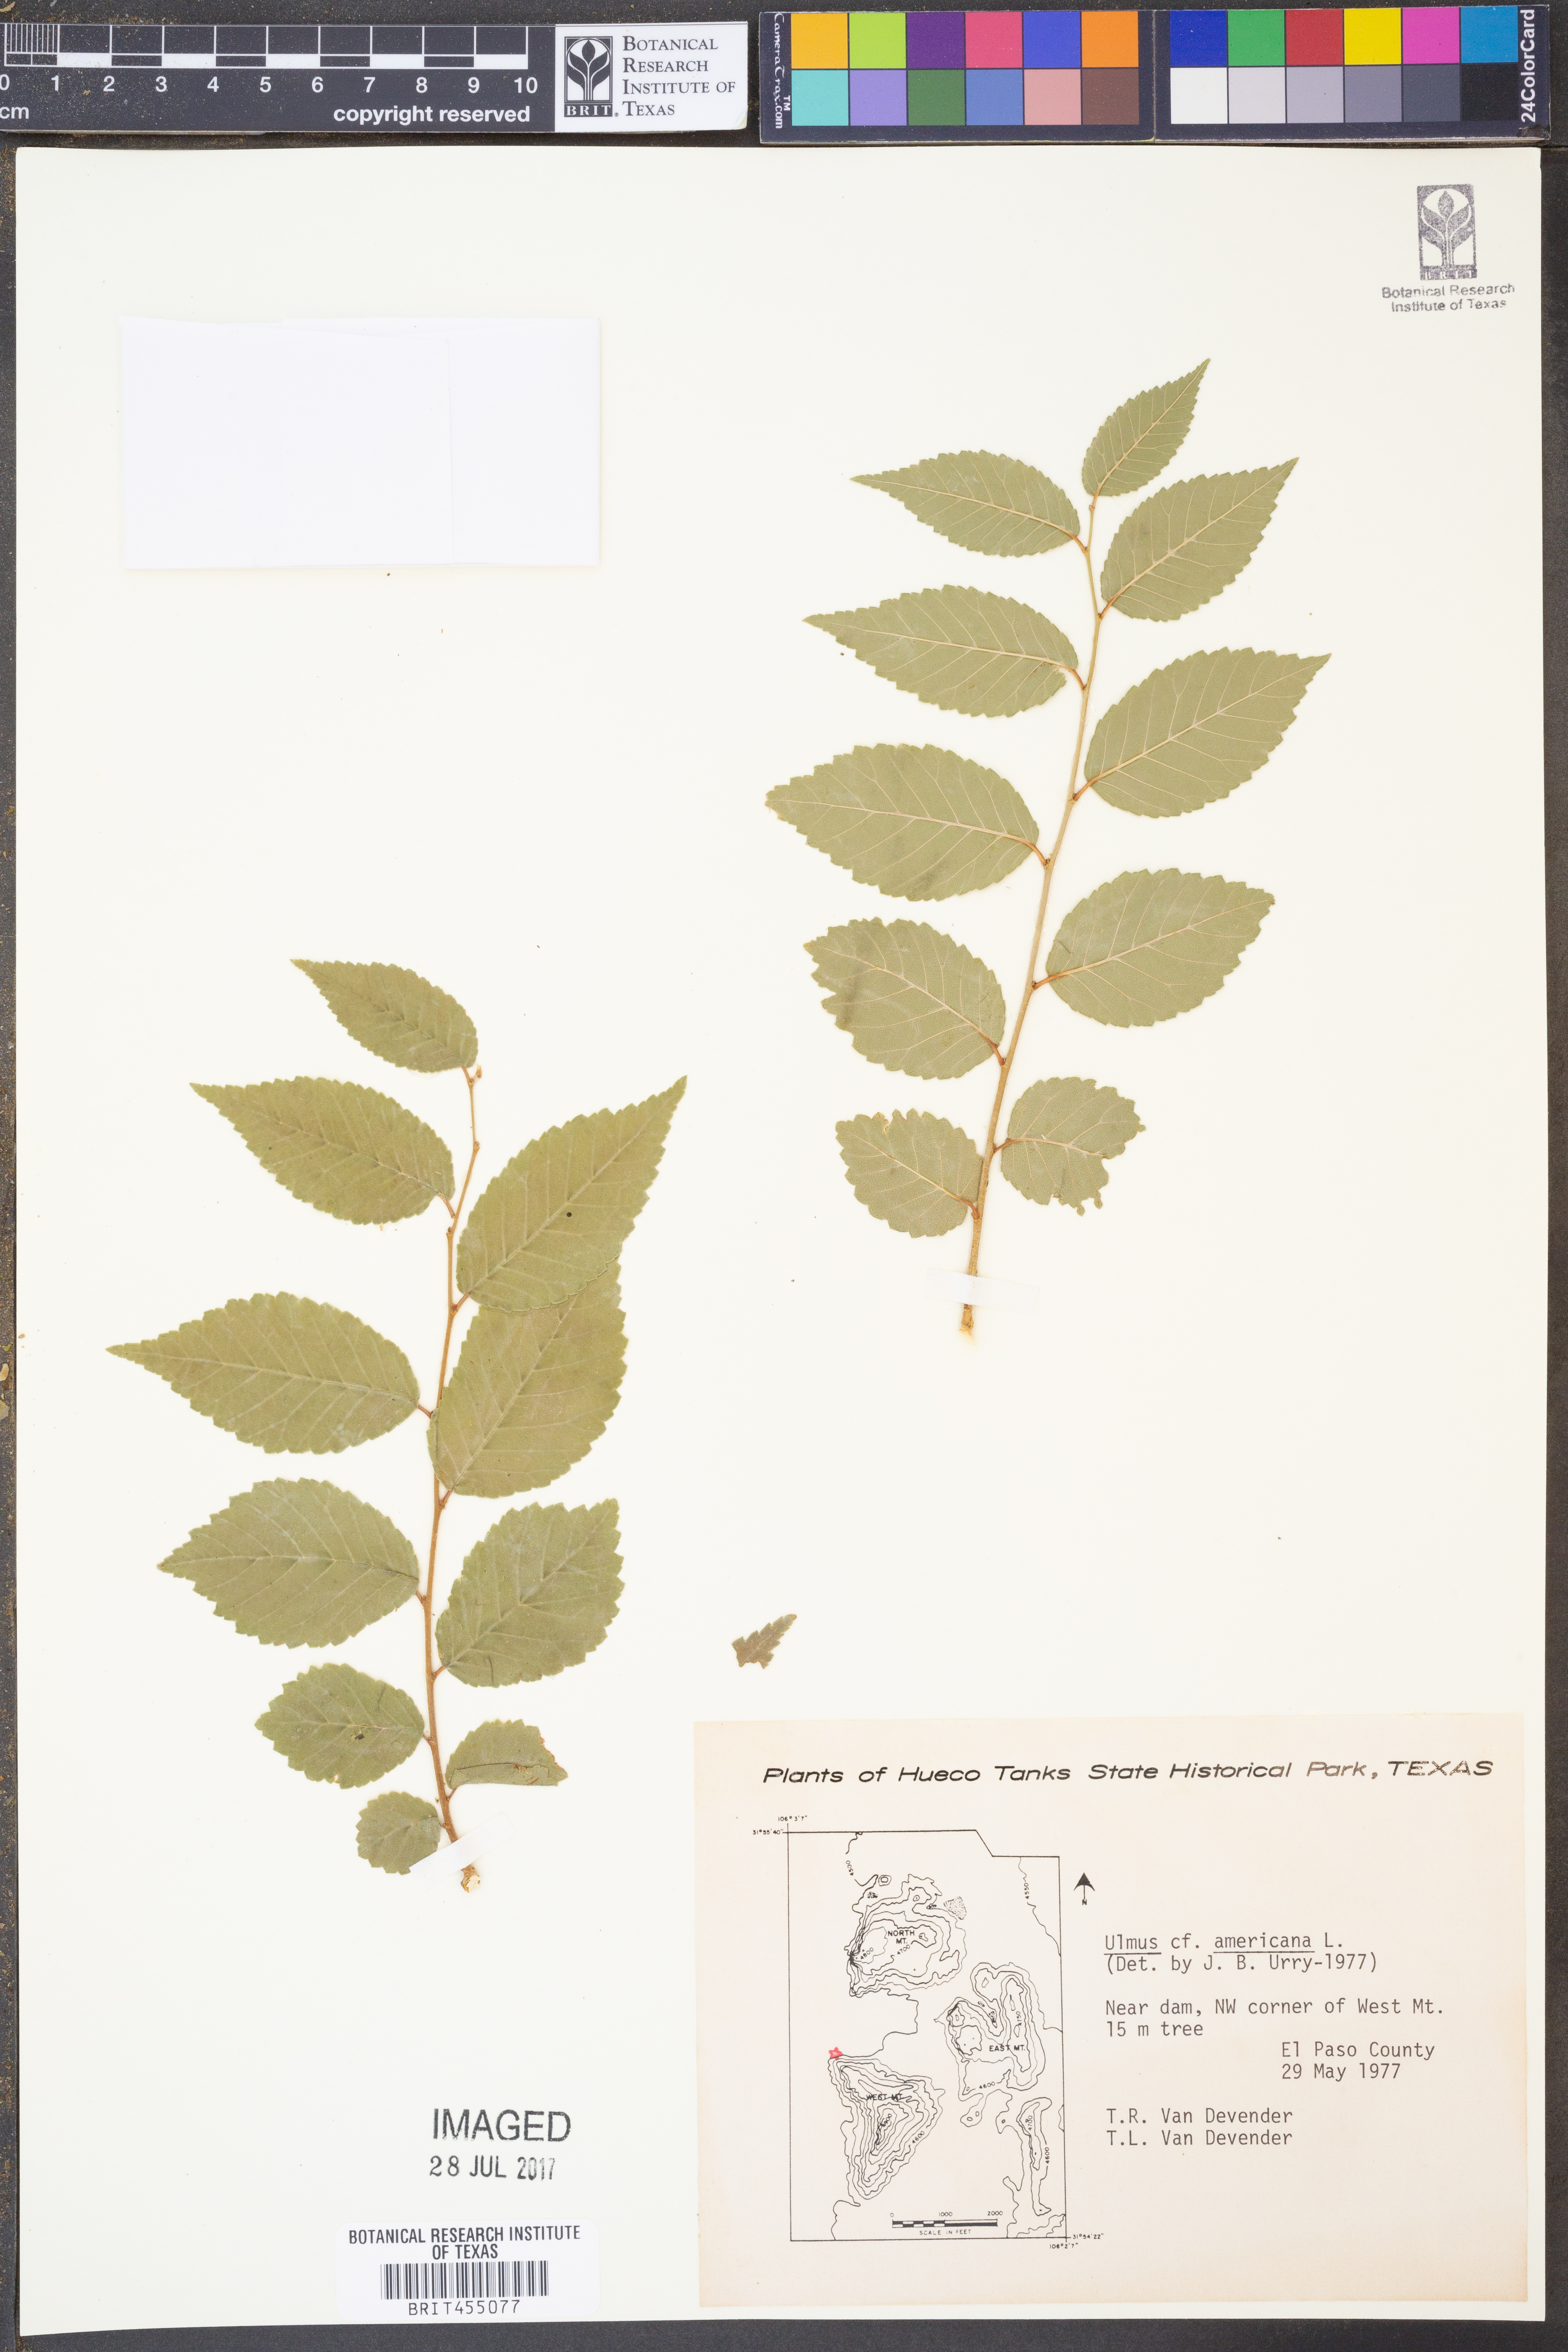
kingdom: Plantae
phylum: Tracheophyta
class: Magnoliopsida
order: Rosales
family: Ulmaceae
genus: Ulmus
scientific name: Ulmus americana
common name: American elm
